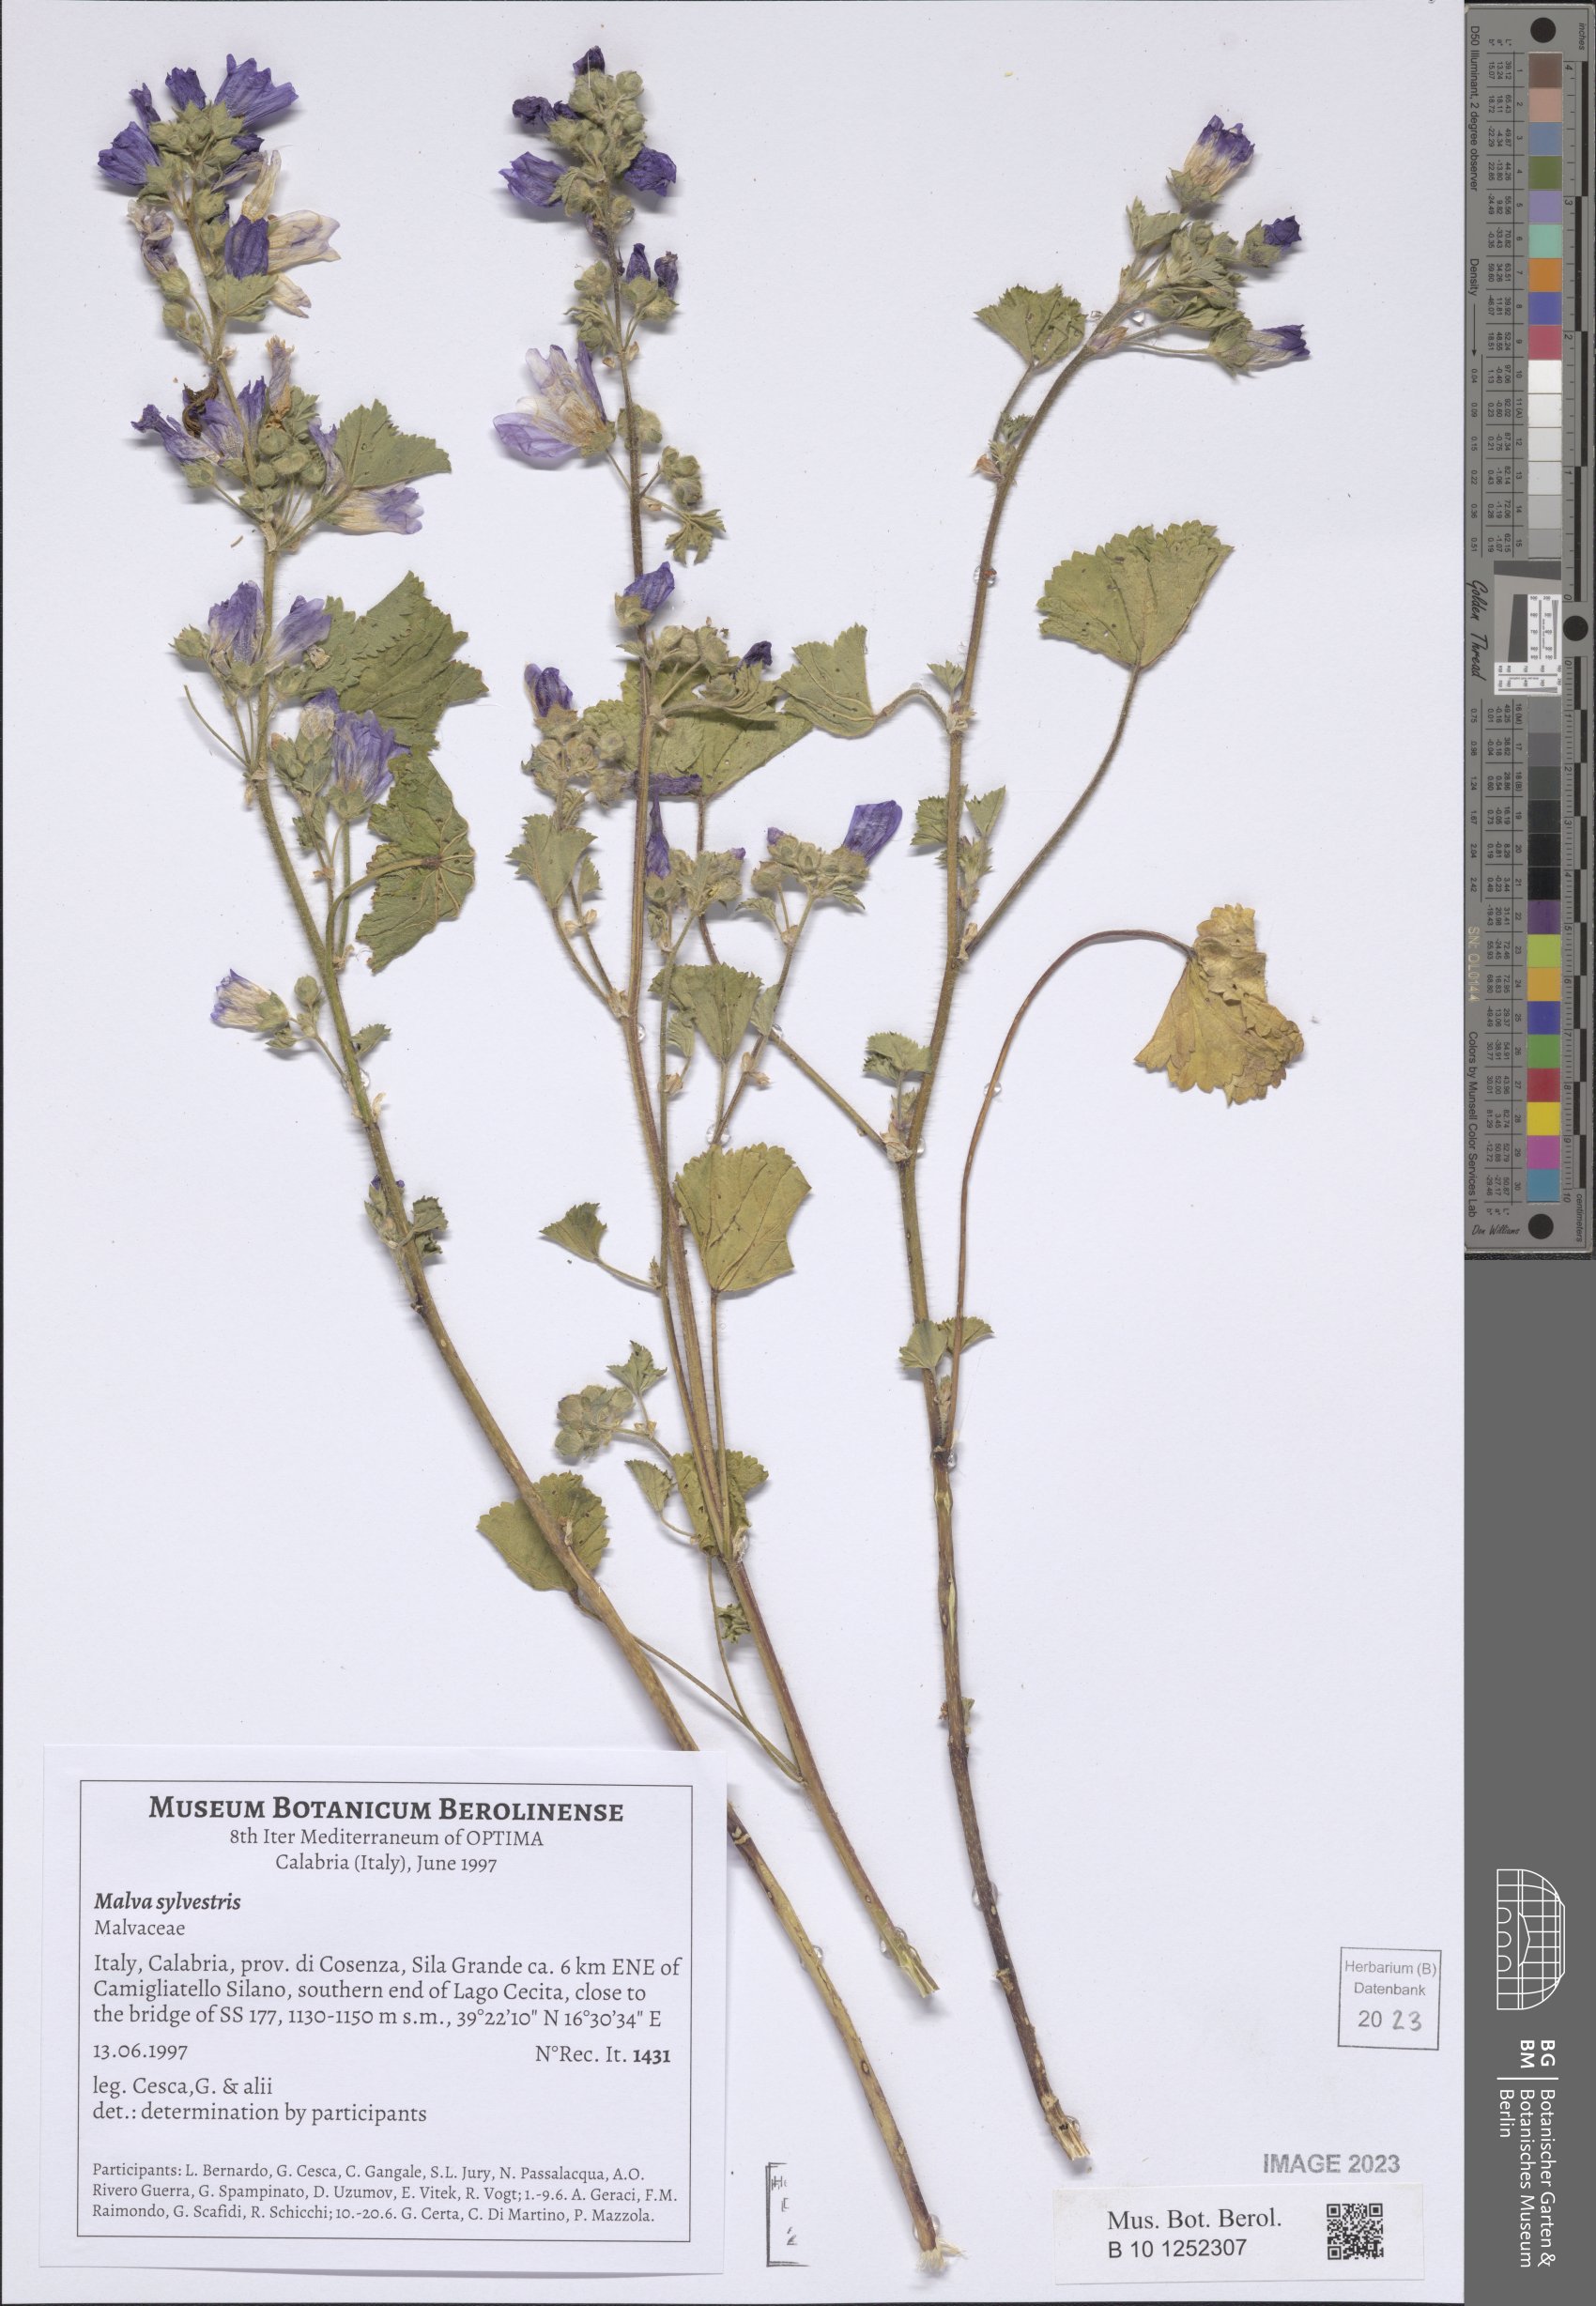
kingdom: Plantae
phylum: Tracheophyta
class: Magnoliopsida
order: Malvales
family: Malvaceae
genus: Malva
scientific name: Malva sylvestris
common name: Common mallow
